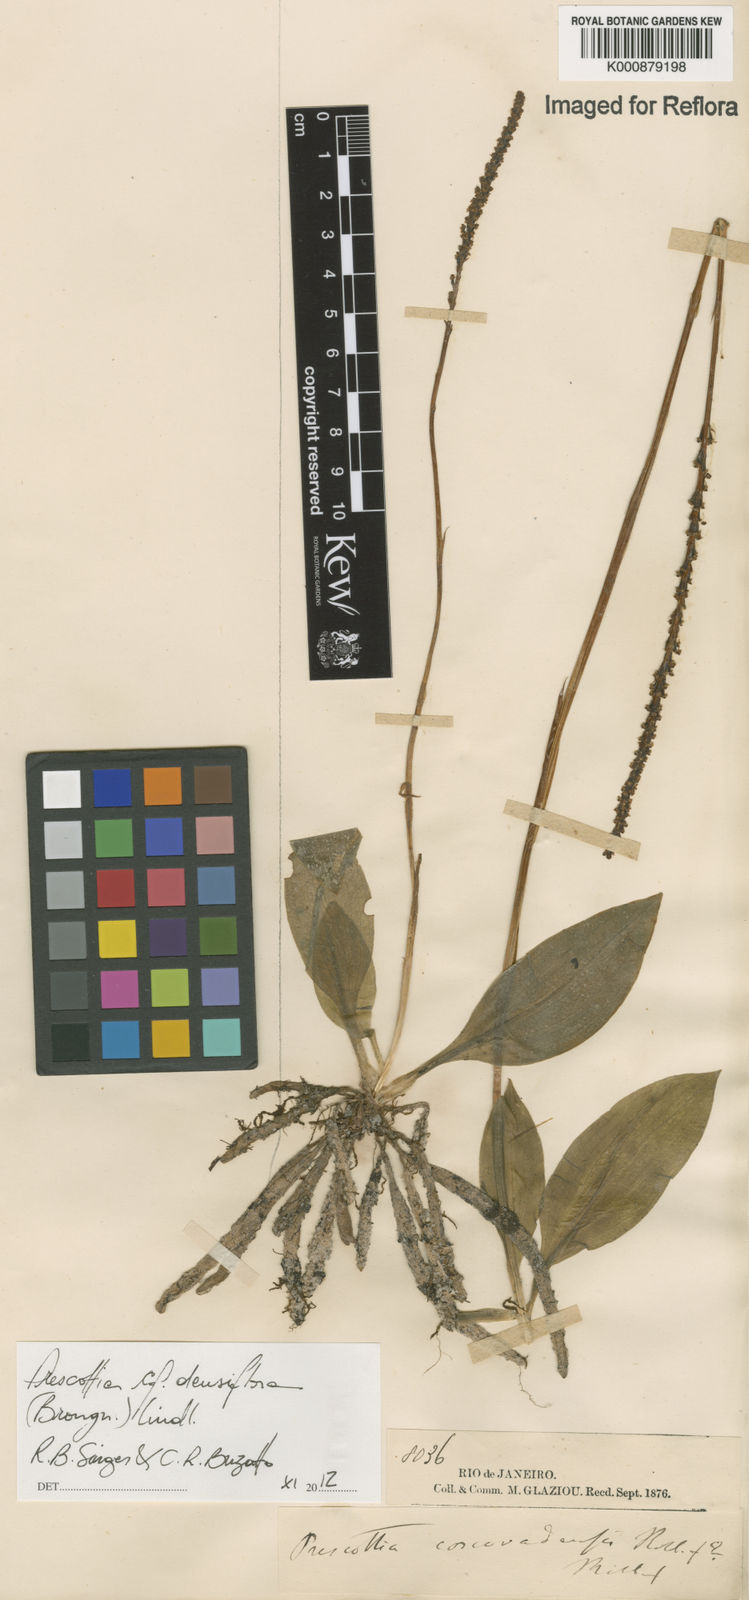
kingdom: Plantae
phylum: Tracheophyta
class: Liliopsida
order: Asparagales
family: Orchidaceae
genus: Prescottia
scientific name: Prescottia densiflora
